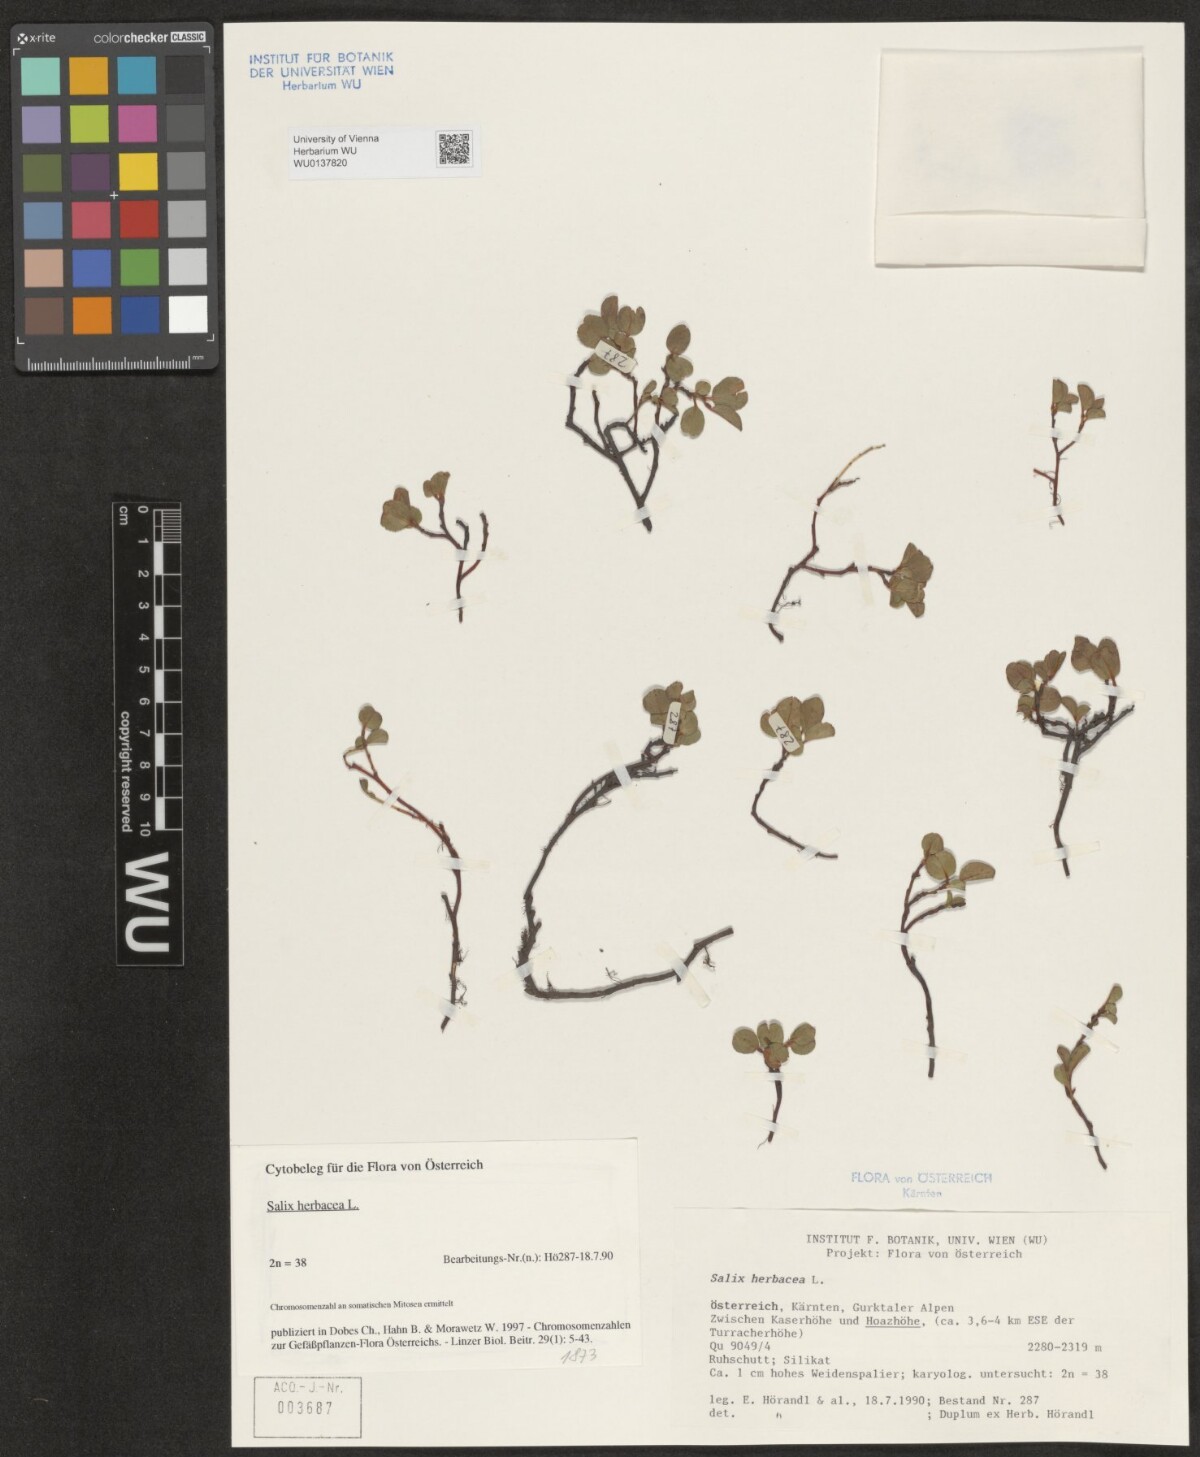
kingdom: Plantae
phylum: Tracheophyta
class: Magnoliopsida
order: Malpighiales
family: Salicaceae
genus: Salix
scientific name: Salix herbacea
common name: Dwarf willow
